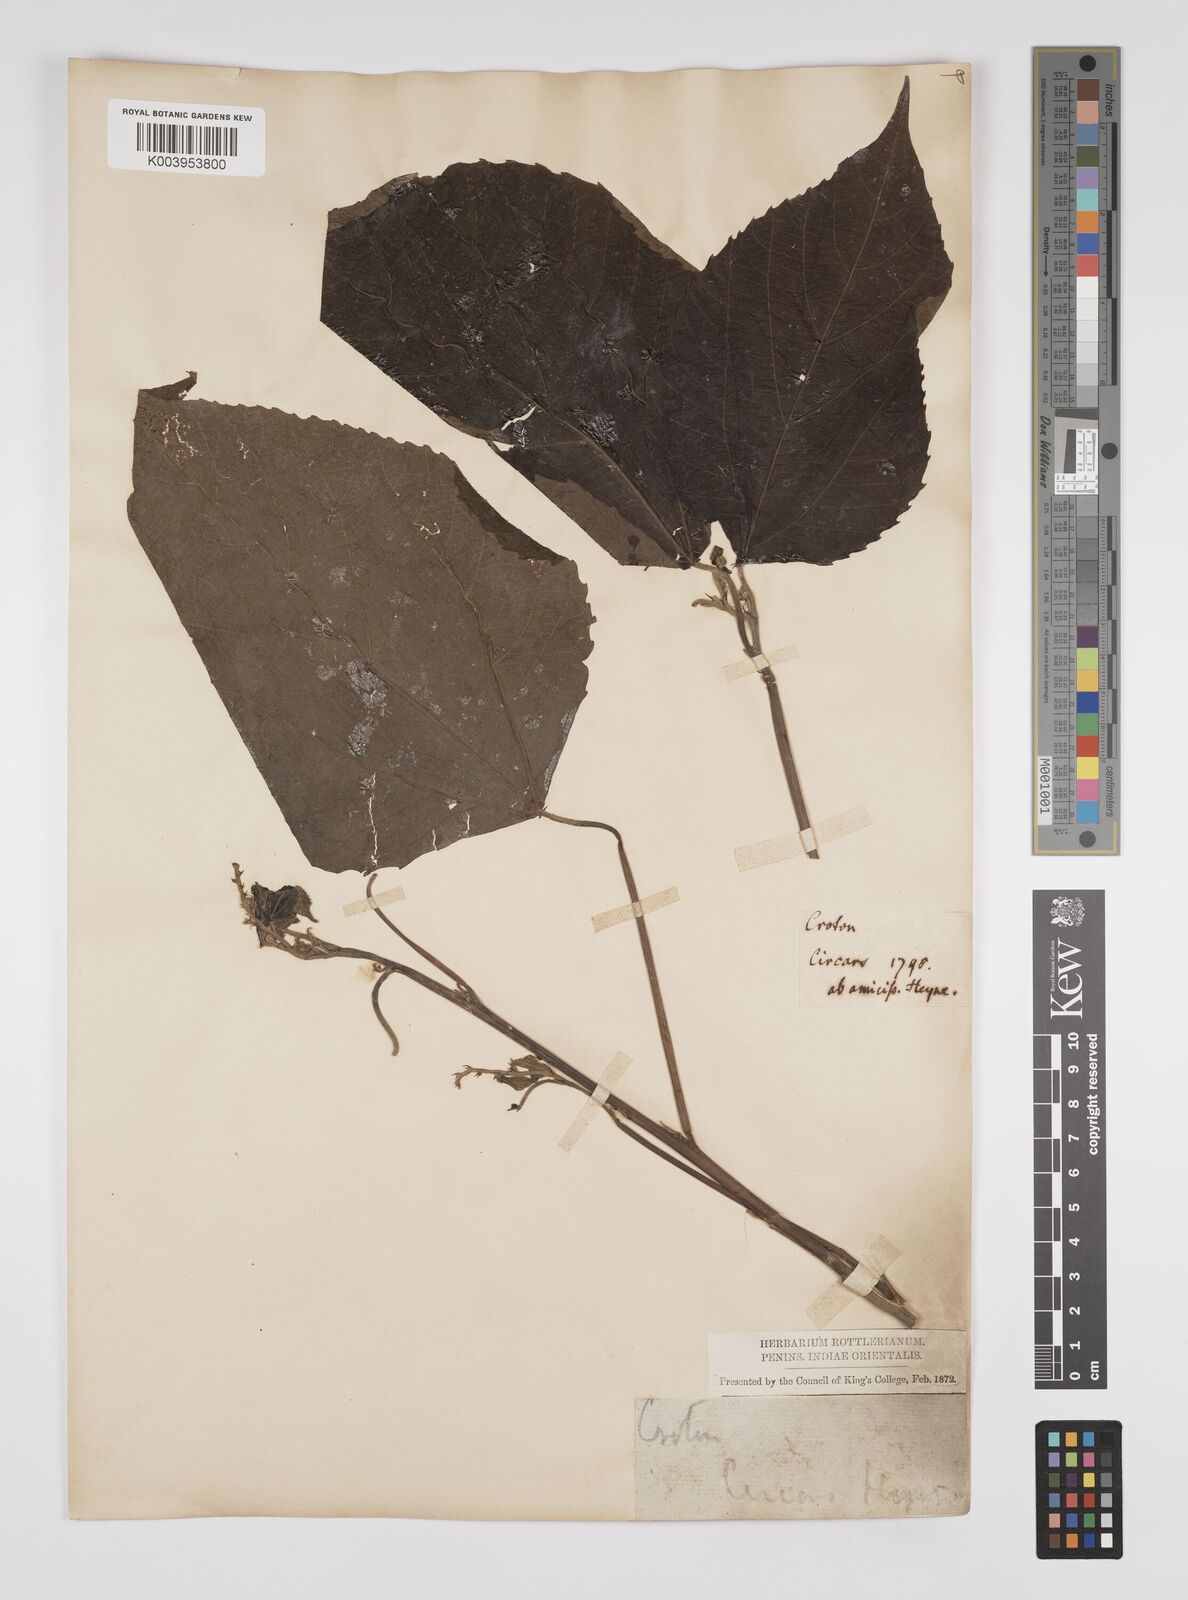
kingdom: Plantae
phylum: Tracheophyta
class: Magnoliopsida
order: Malpighiales
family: Euphorbiaceae
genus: Alchornea
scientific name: Alchornea mollis
